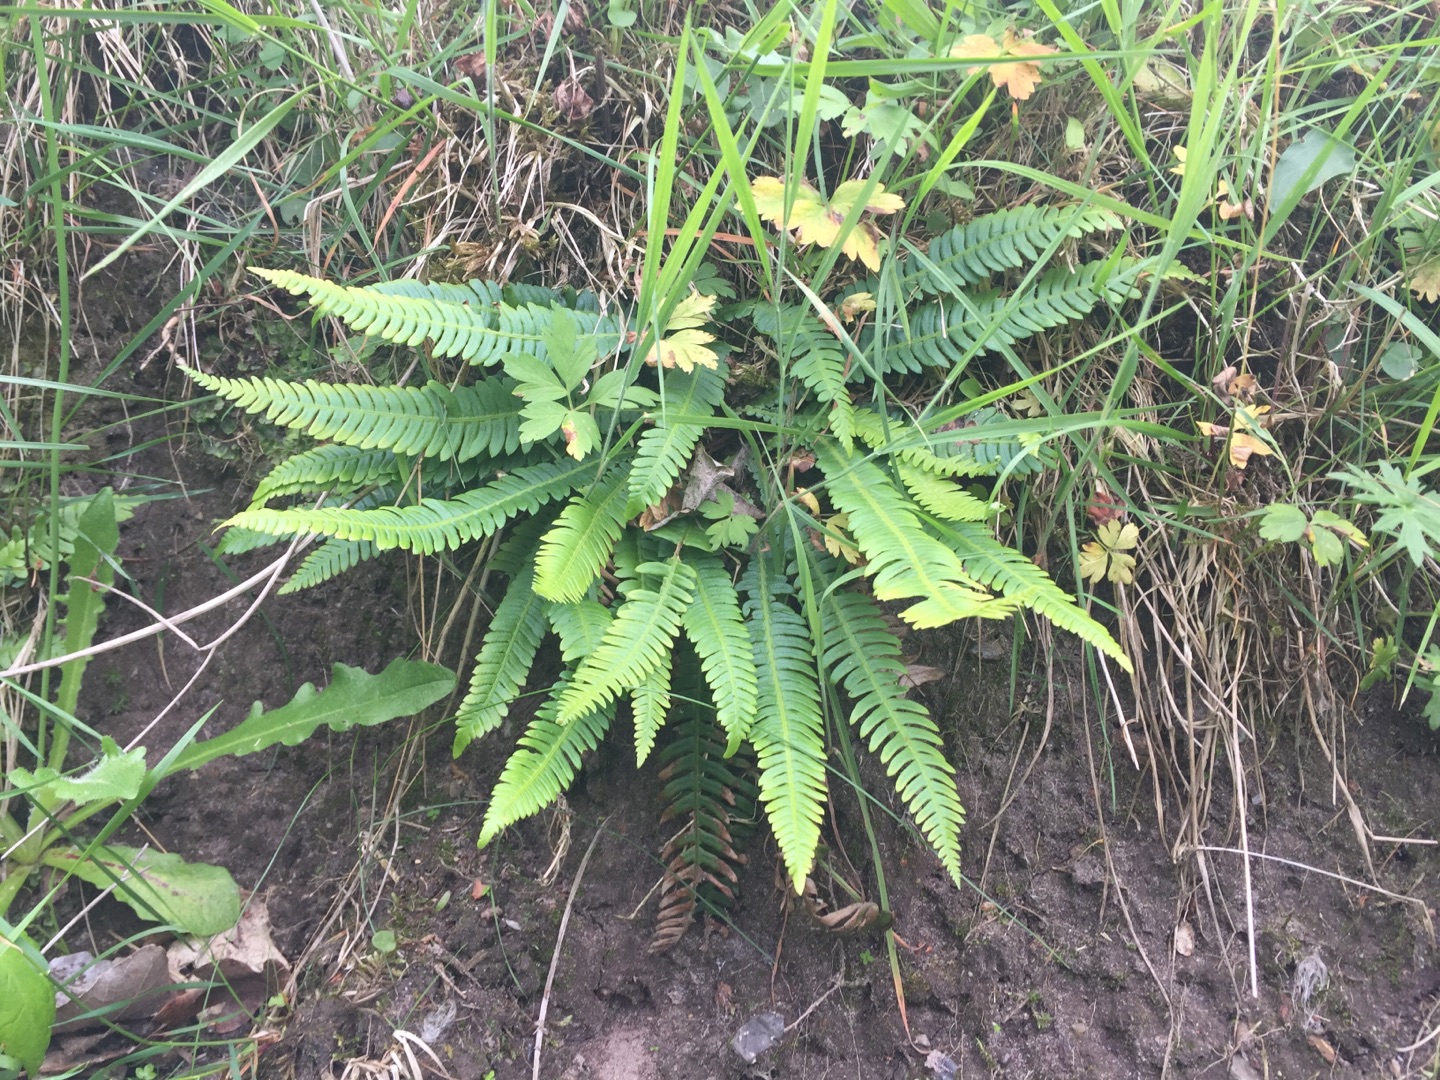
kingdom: Plantae
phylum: Tracheophyta
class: Polypodiopsida
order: Polypodiales
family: Blechnaceae
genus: Struthiopteris
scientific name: Struthiopteris spicant
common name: Kambregne
